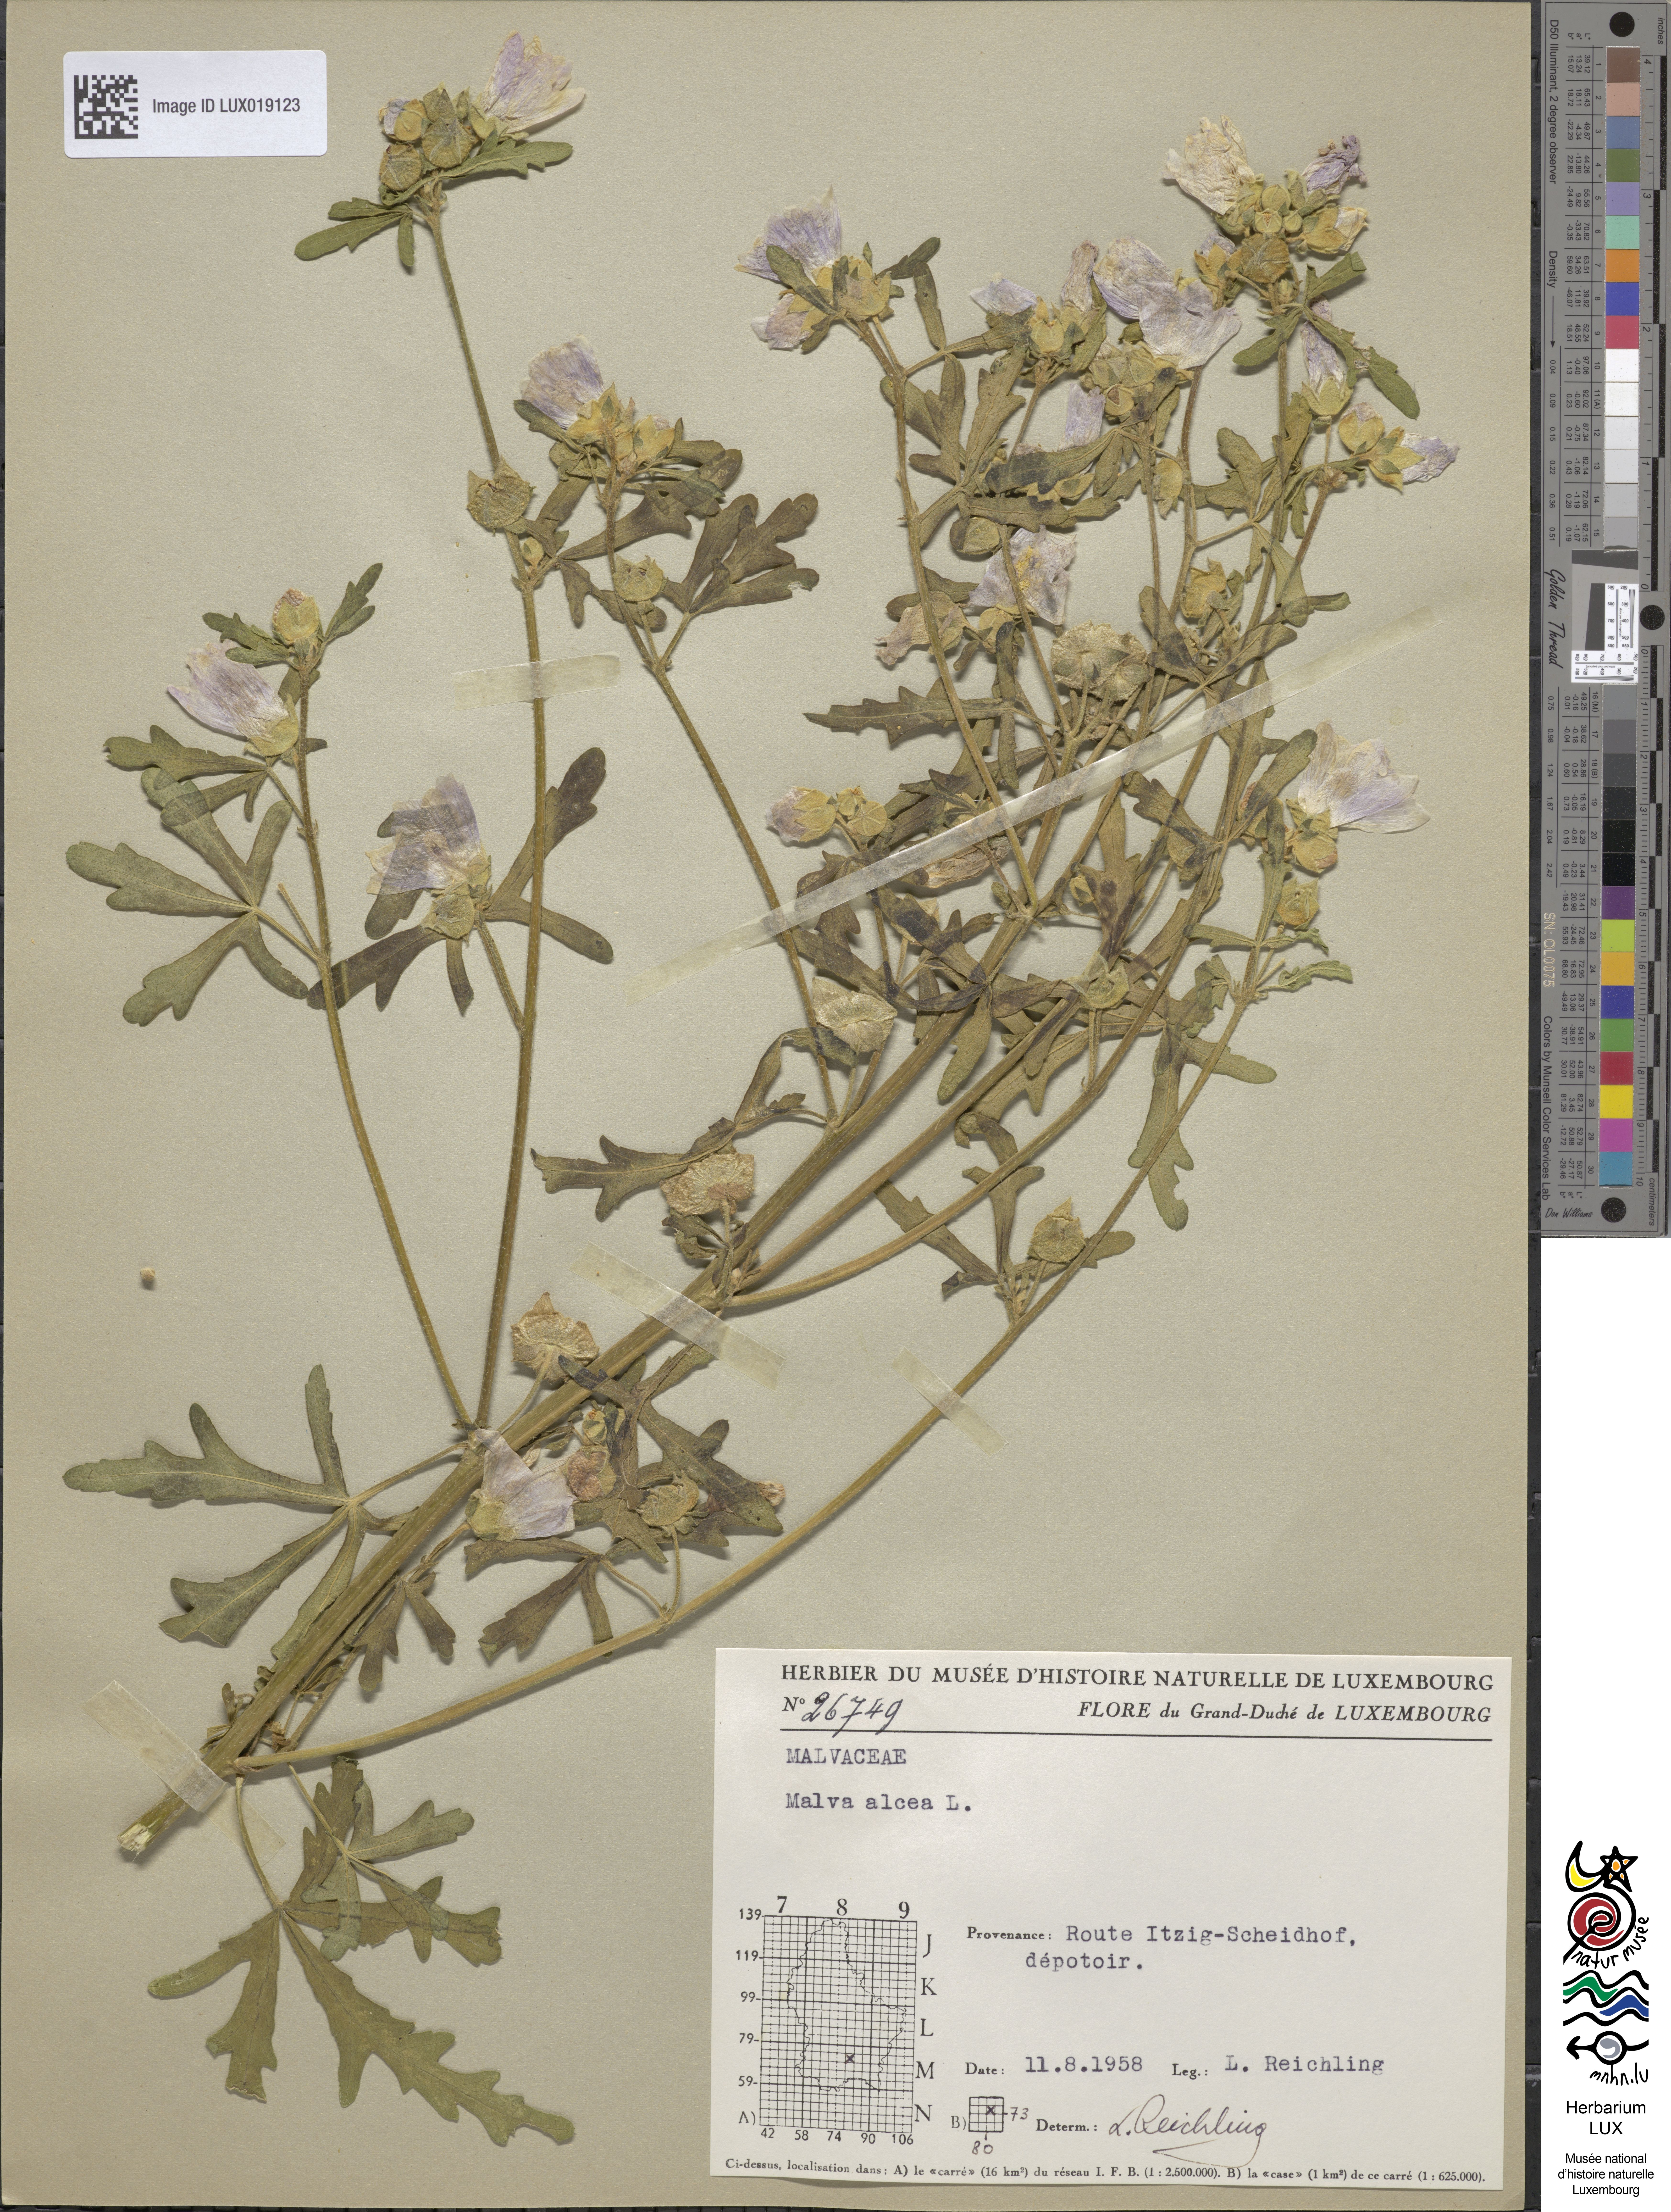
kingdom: Plantae
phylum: Tracheophyta
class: Magnoliopsida
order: Malvales
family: Malvaceae
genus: Malva
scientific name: Malva alcea
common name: Greater musk-mallow
